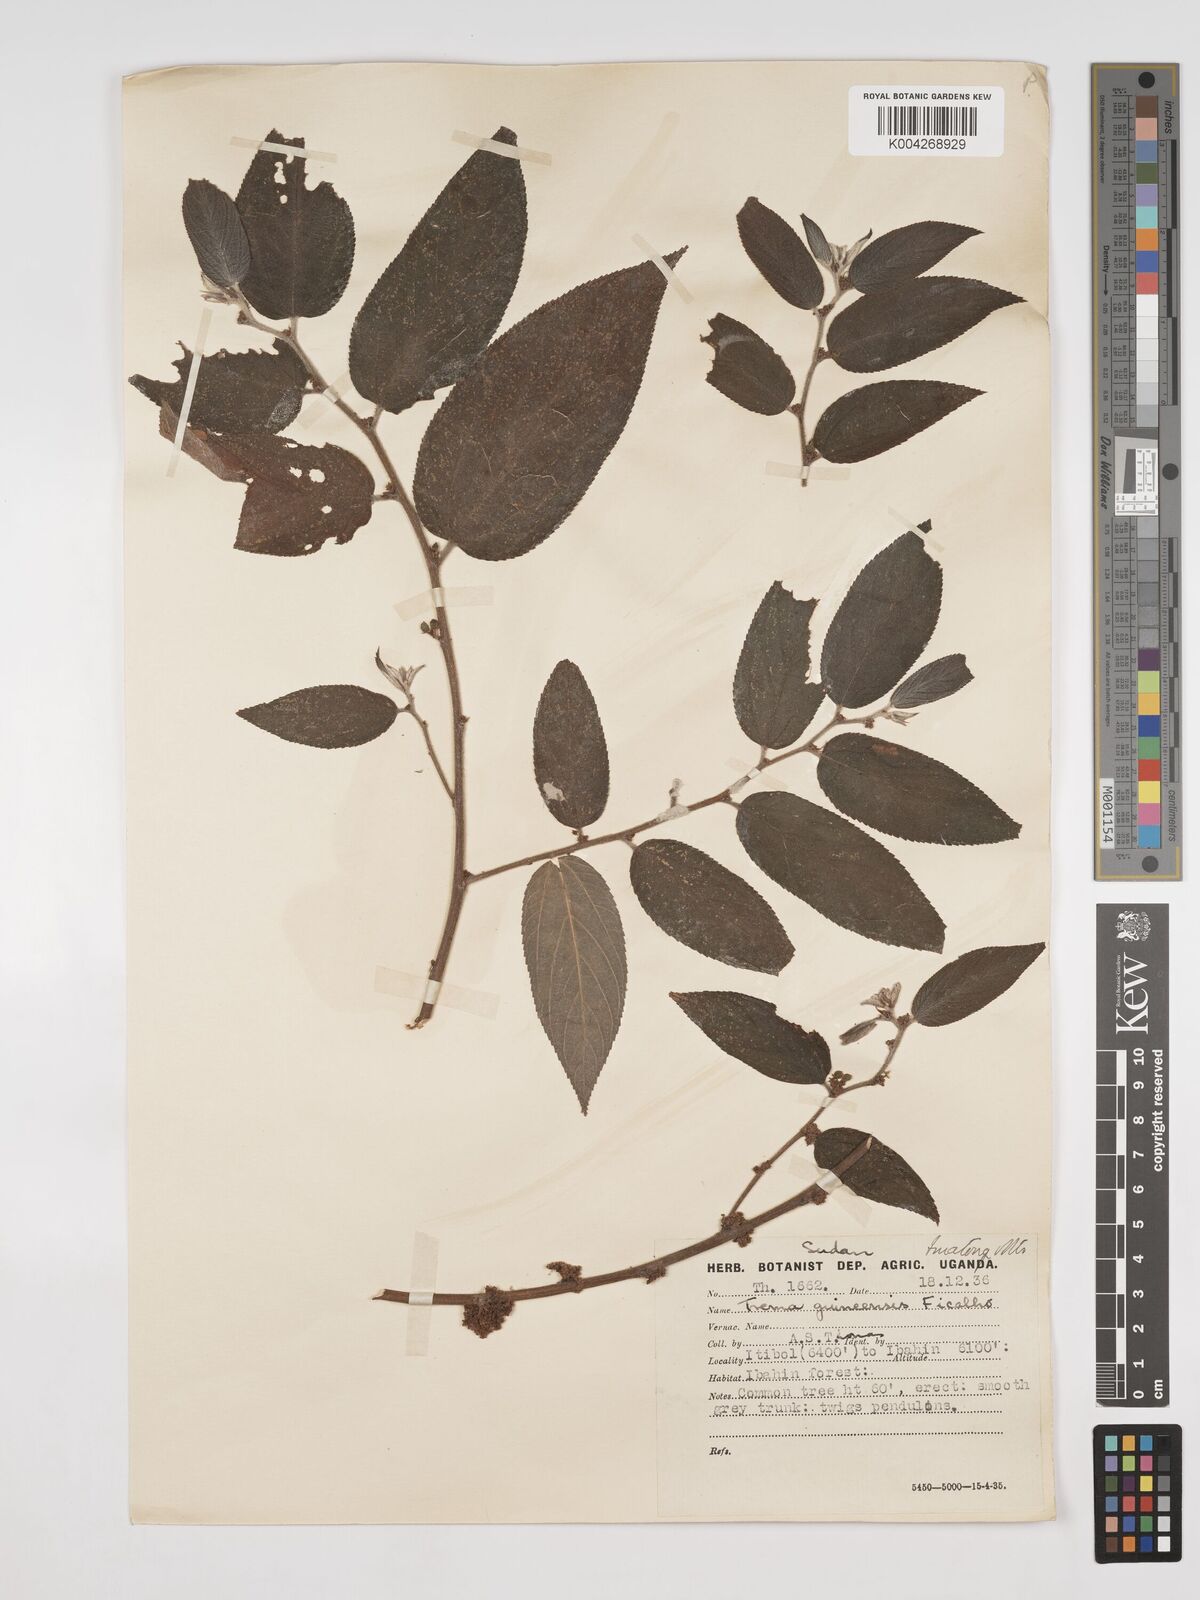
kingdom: Plantae
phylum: Tracheophyta
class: Magnoliopsida
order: Rosales
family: Cannabaceae
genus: Trema
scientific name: Trema orientale
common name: Indian charcoal tree
